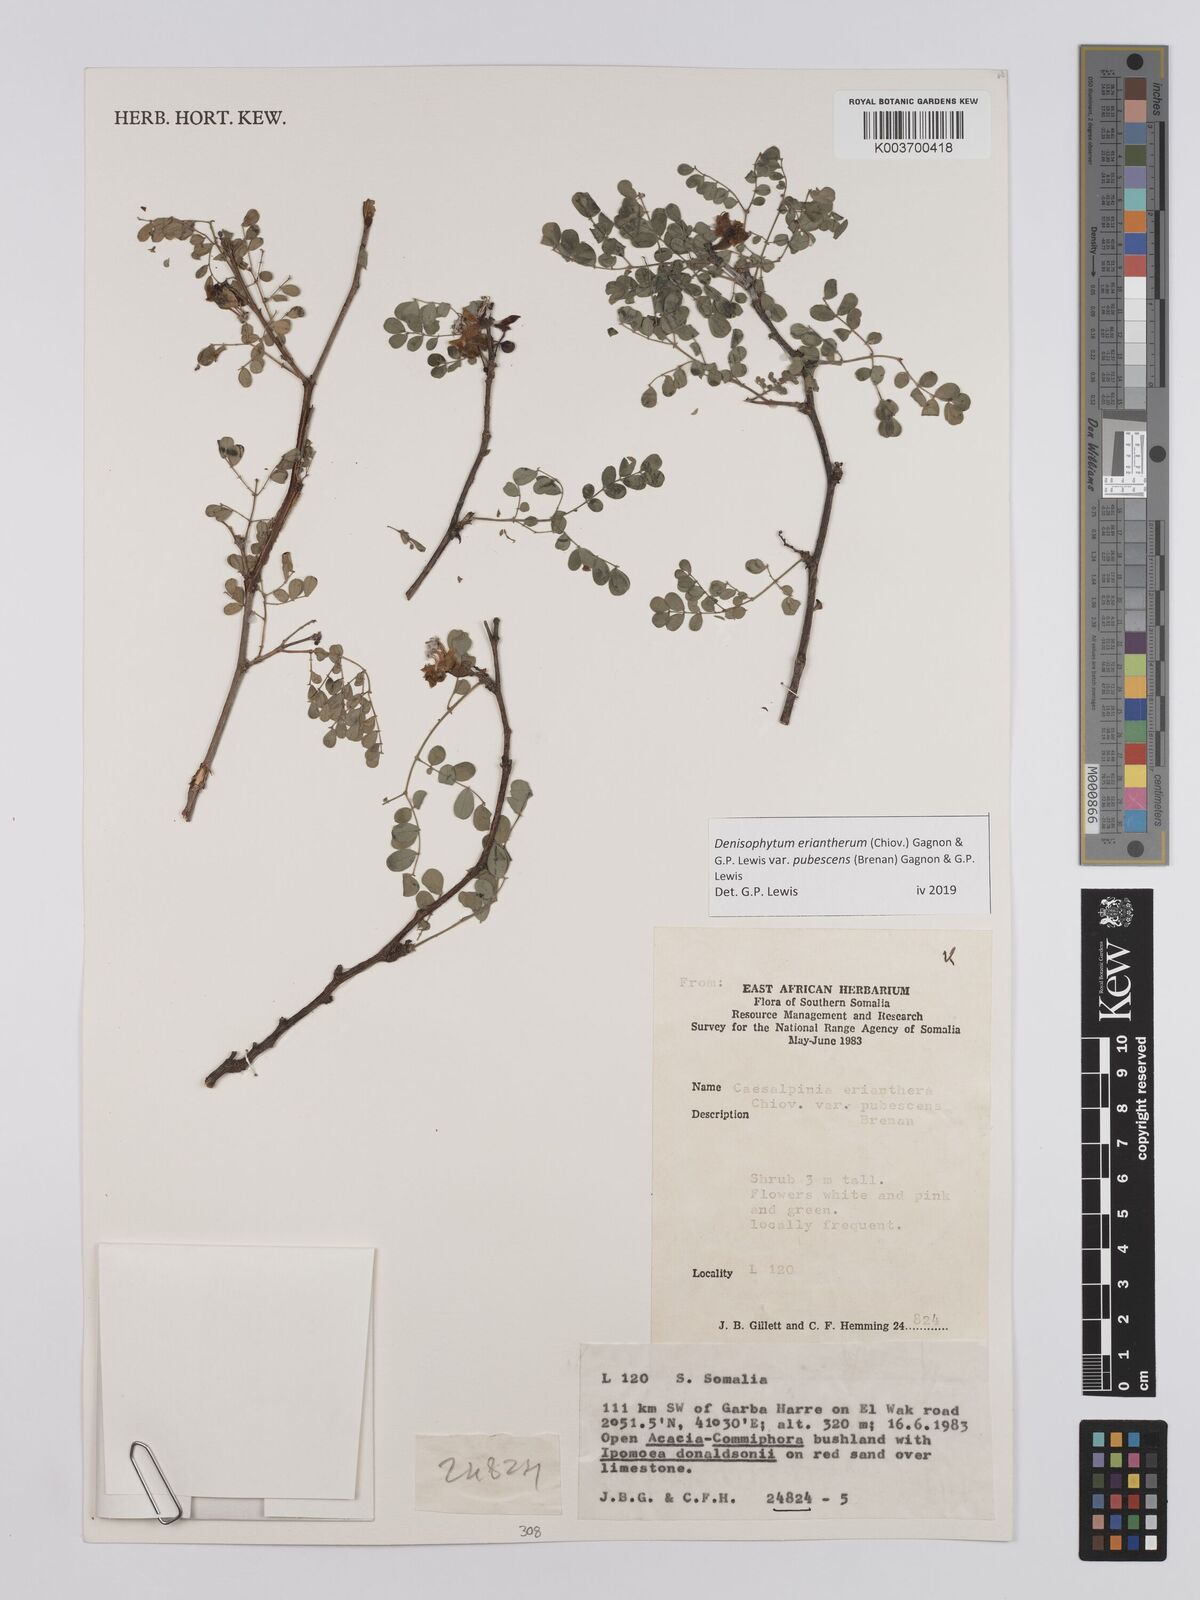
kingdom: Plantae
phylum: Tracheophyta
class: Magnoliopsida
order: Fabales
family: Fabaceae
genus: Denisophytum
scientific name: Denisophytum eriantherum
